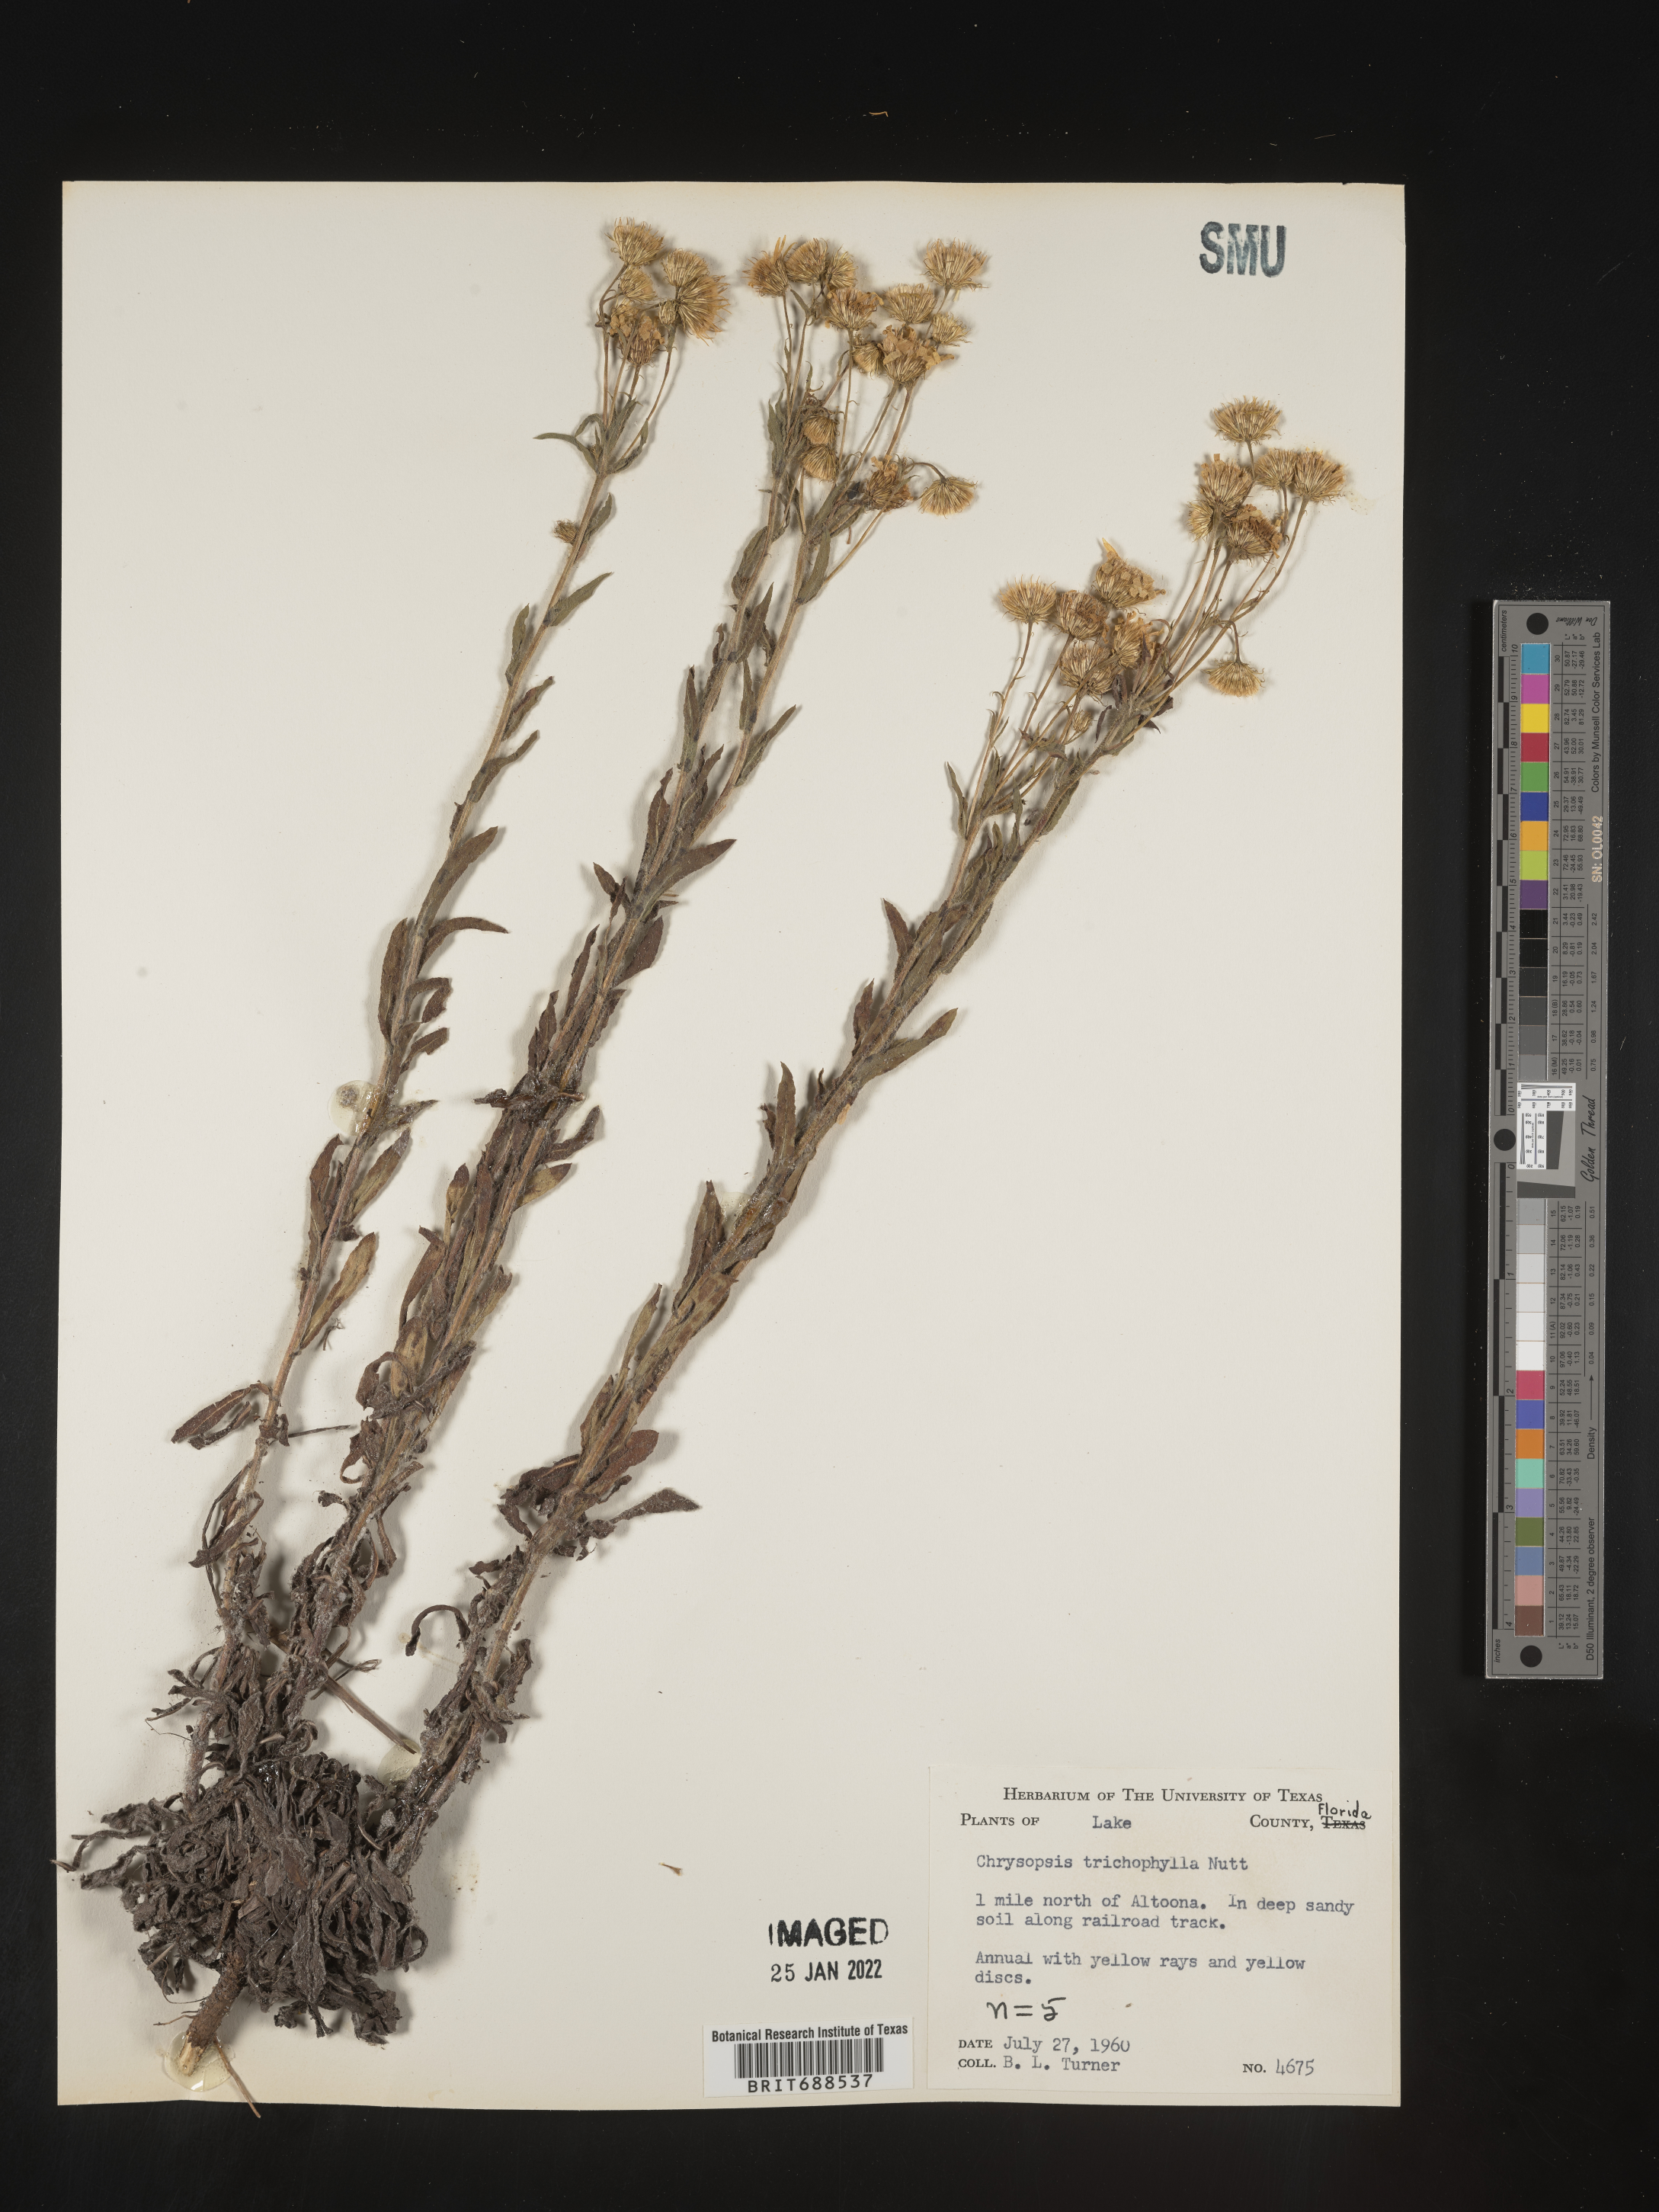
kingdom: Plantae
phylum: Tracheophyta
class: Magnoliopsida
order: Asterales
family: Asteraceae
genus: Chrysopsis
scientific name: Chrysopsis gossypina
